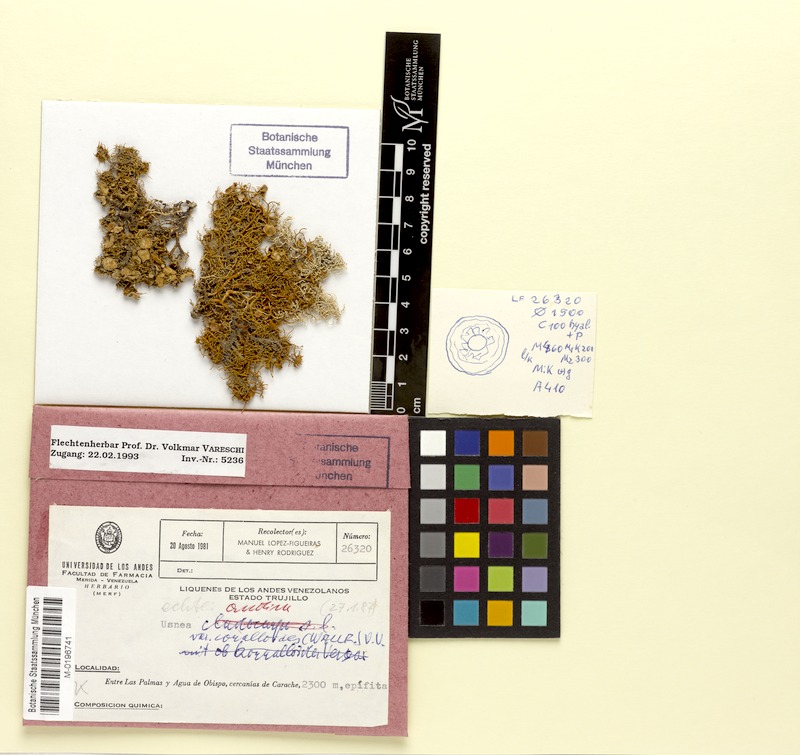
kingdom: Fungi
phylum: Ascomycota
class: Lecanoromycetes
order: Lecanorales
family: Parmeliaceae
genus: Usnea
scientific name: Usnea andina
